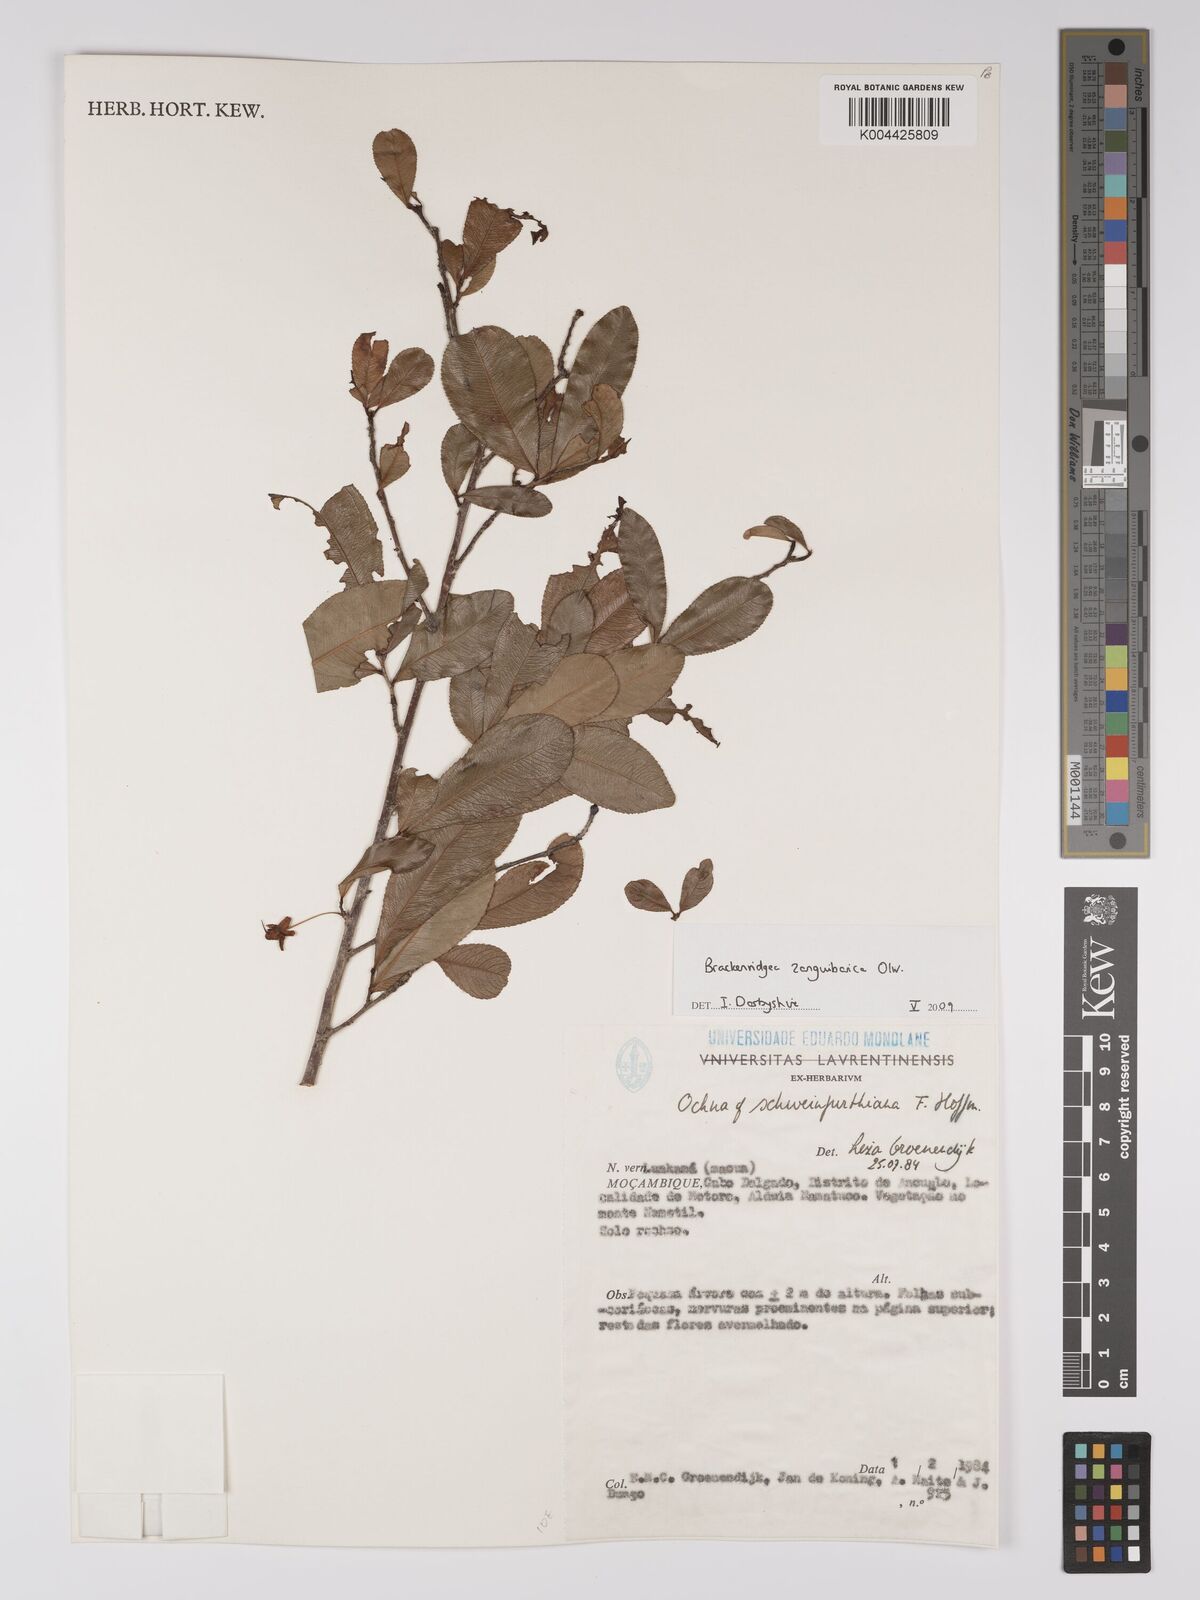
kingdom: Plantae
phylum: Tracheophyta
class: Magnoliopsida
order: Malpighiales
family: Ochnaceae
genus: Brackenridgea
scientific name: Brackenridgea zanguebarica
